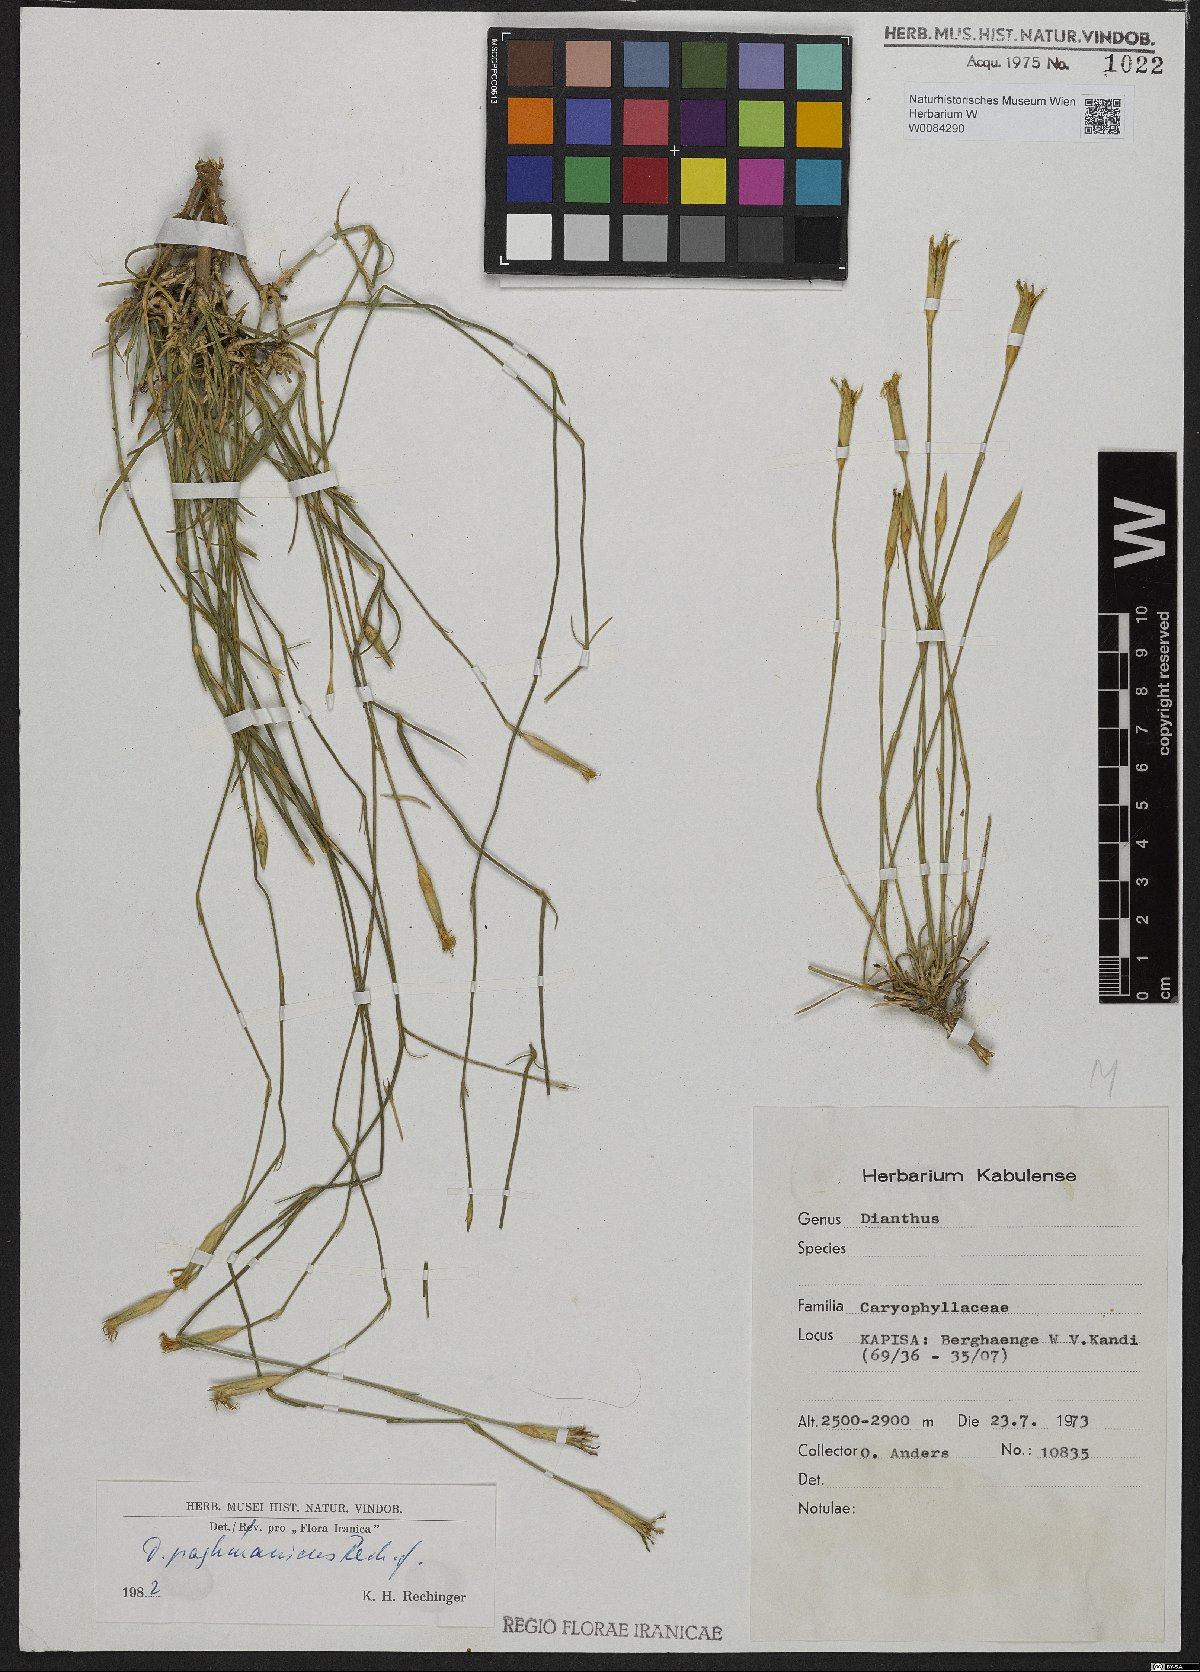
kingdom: Plantae
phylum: Tracheophyta
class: Magnoliopsida
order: Caryophyllales
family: Caryophyllaceae
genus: Dianthus
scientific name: Dianthus paghmanicus
